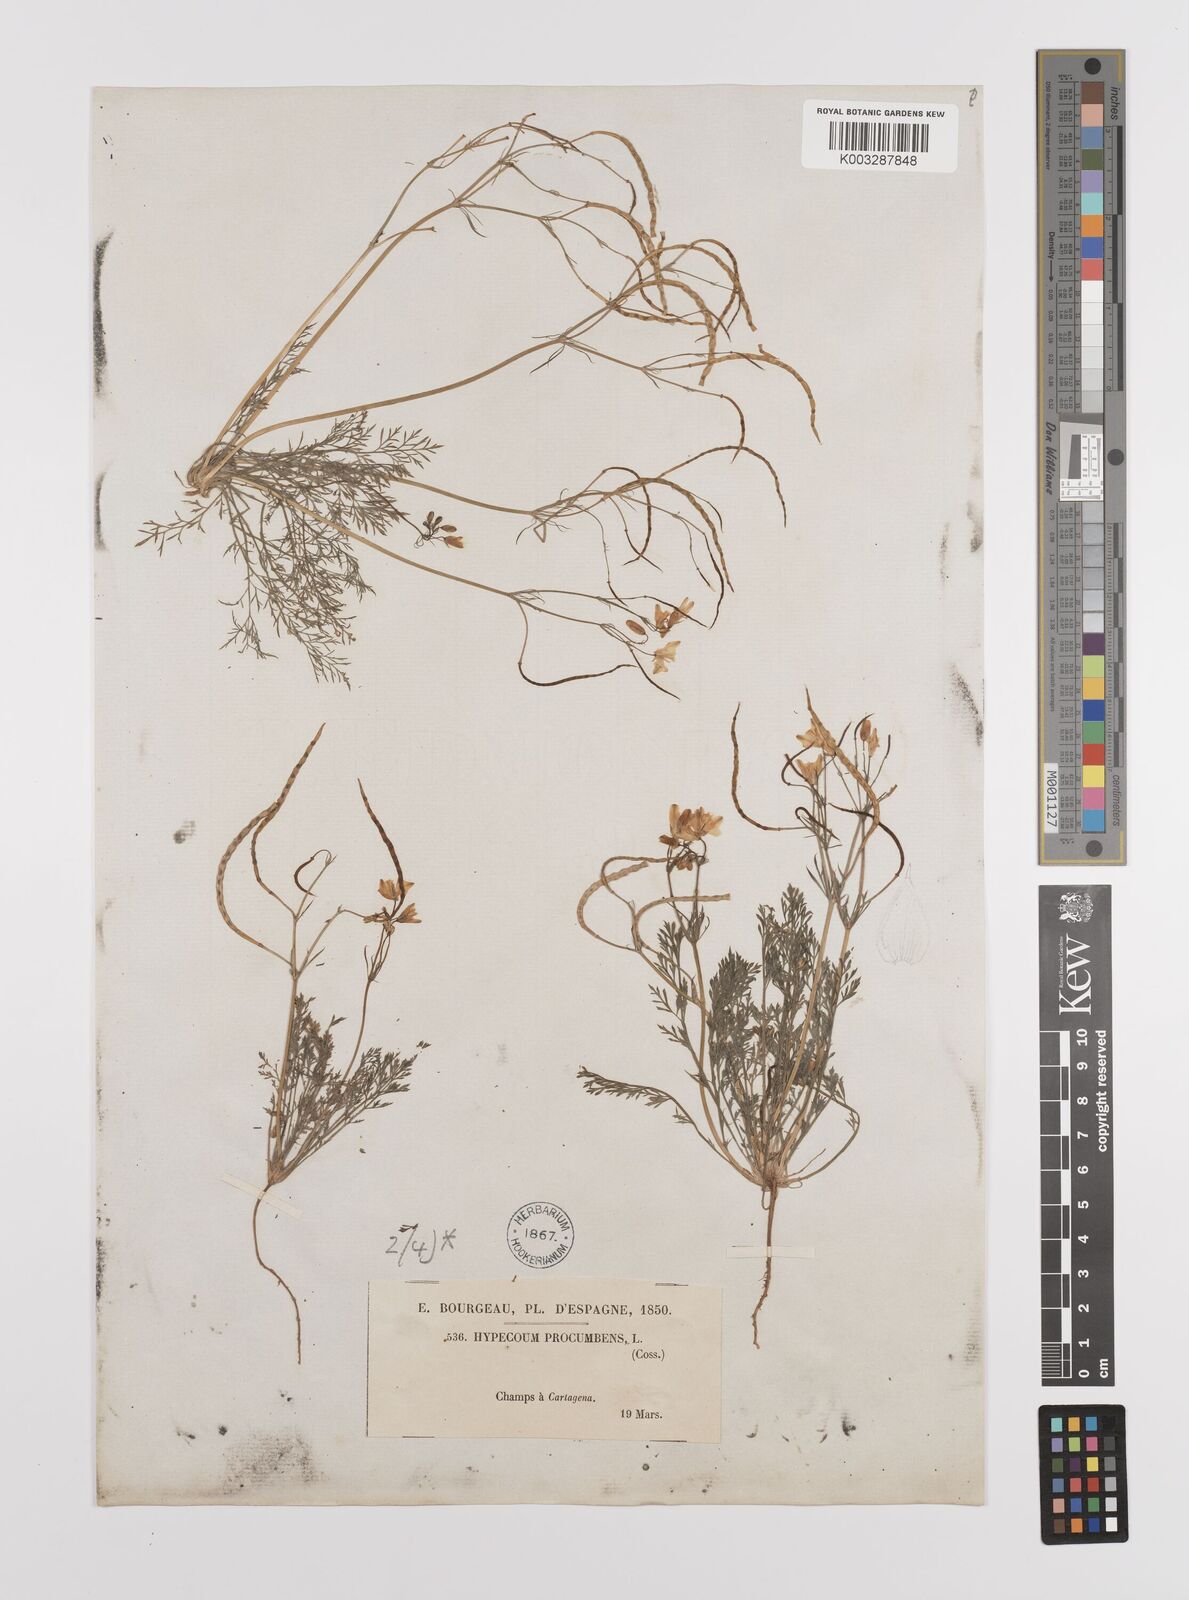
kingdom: Plantae
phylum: Tracheophyta
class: Magnoliopsida
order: Ranunculales
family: Papaveraceae
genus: Hypecoum
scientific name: Hypecoum imberbe
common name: Sicklefruit hypecoum
